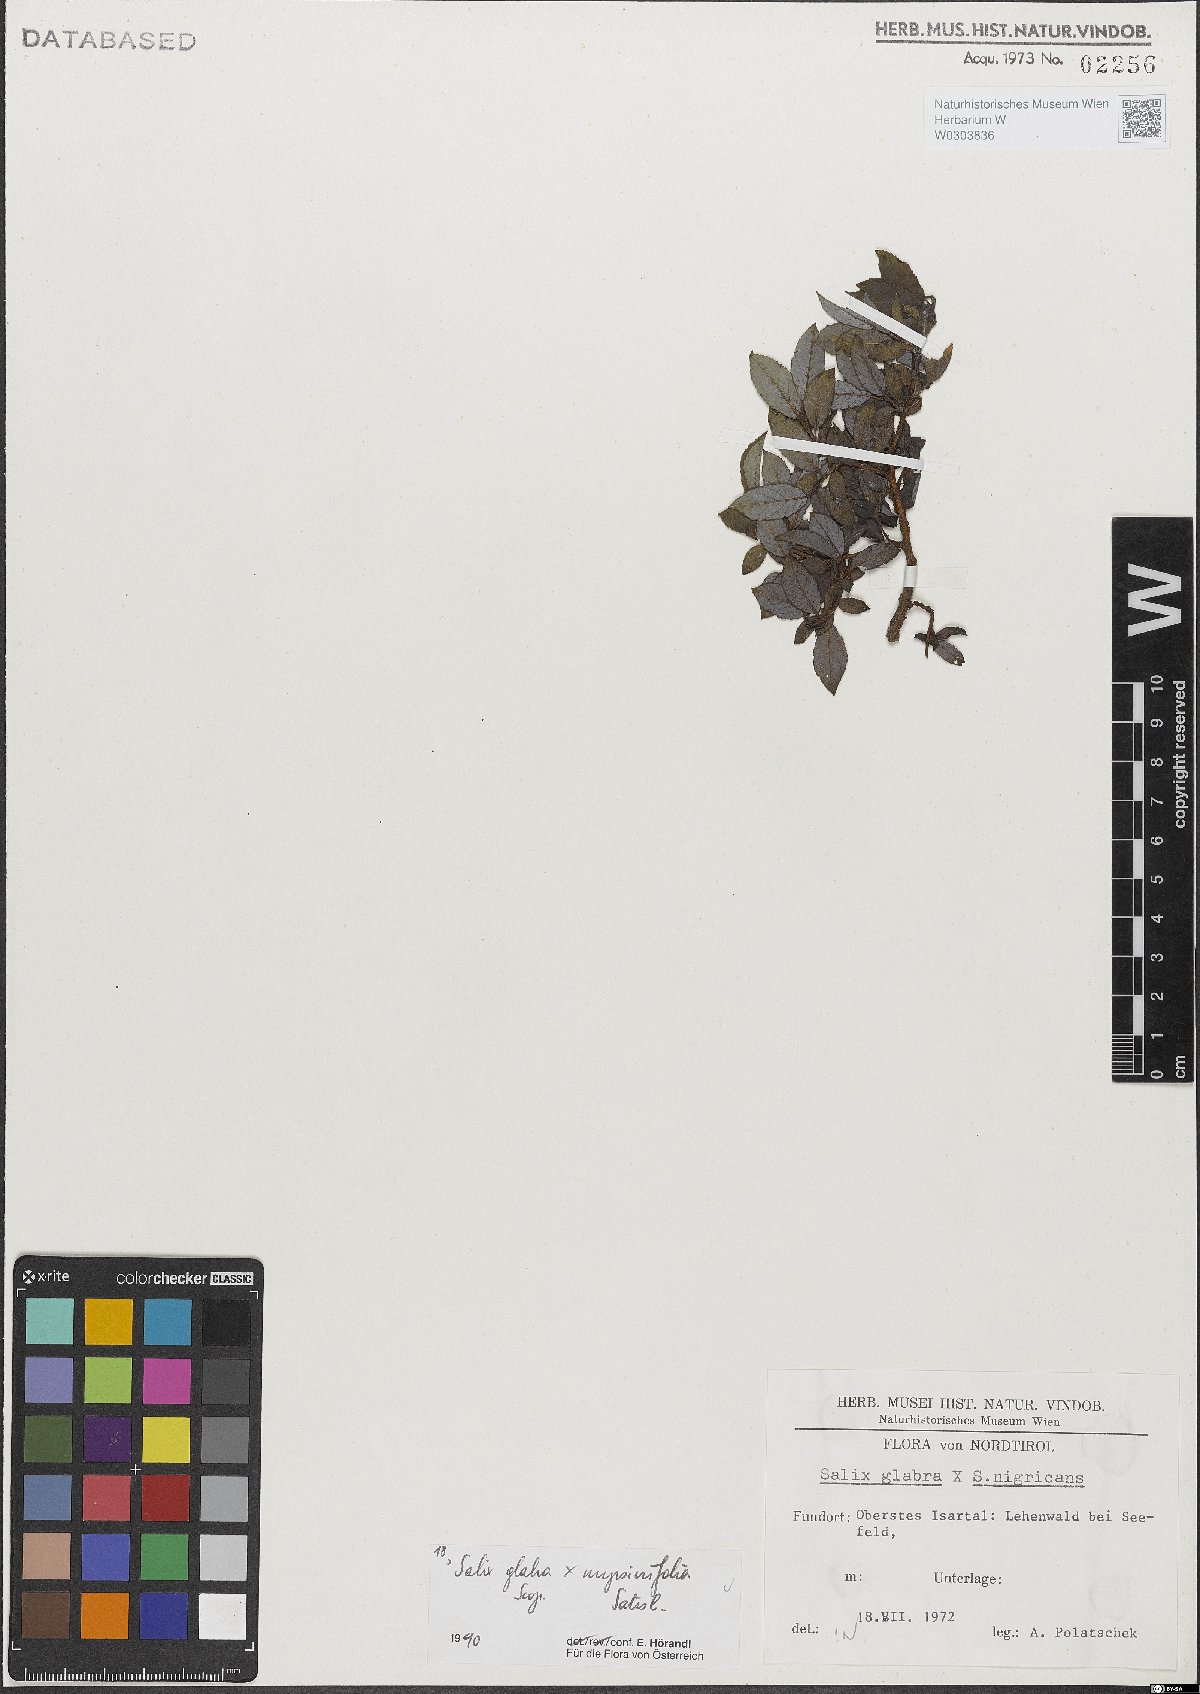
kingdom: Plantae
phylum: Tracheophyta
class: Magnoliopsida
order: Malpighiales
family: Salicaceae
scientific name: Salicaceae
